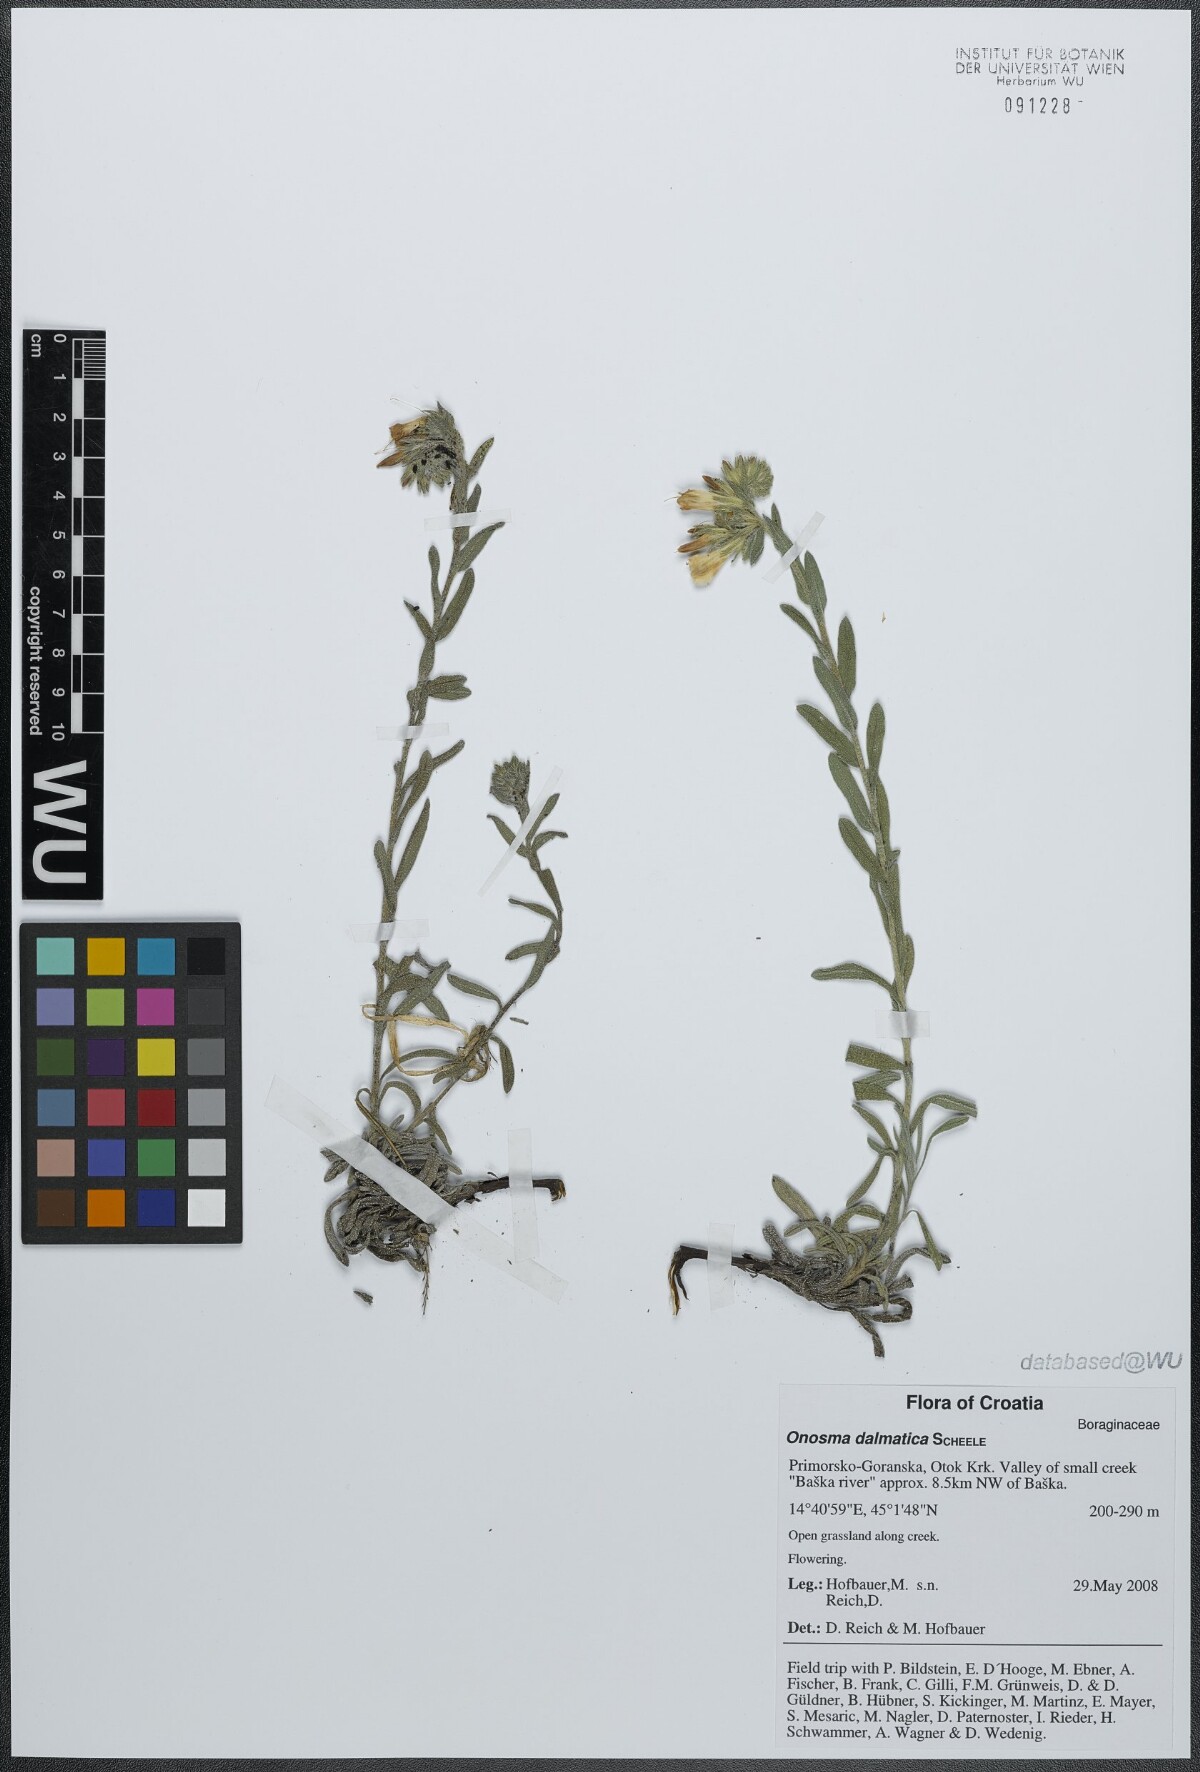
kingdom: Plantae
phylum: Tracheophyta
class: Magnoliopsida
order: Boraginales
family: Boraginaceae
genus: Onosma
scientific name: Onosma echioides
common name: Goldendrop
